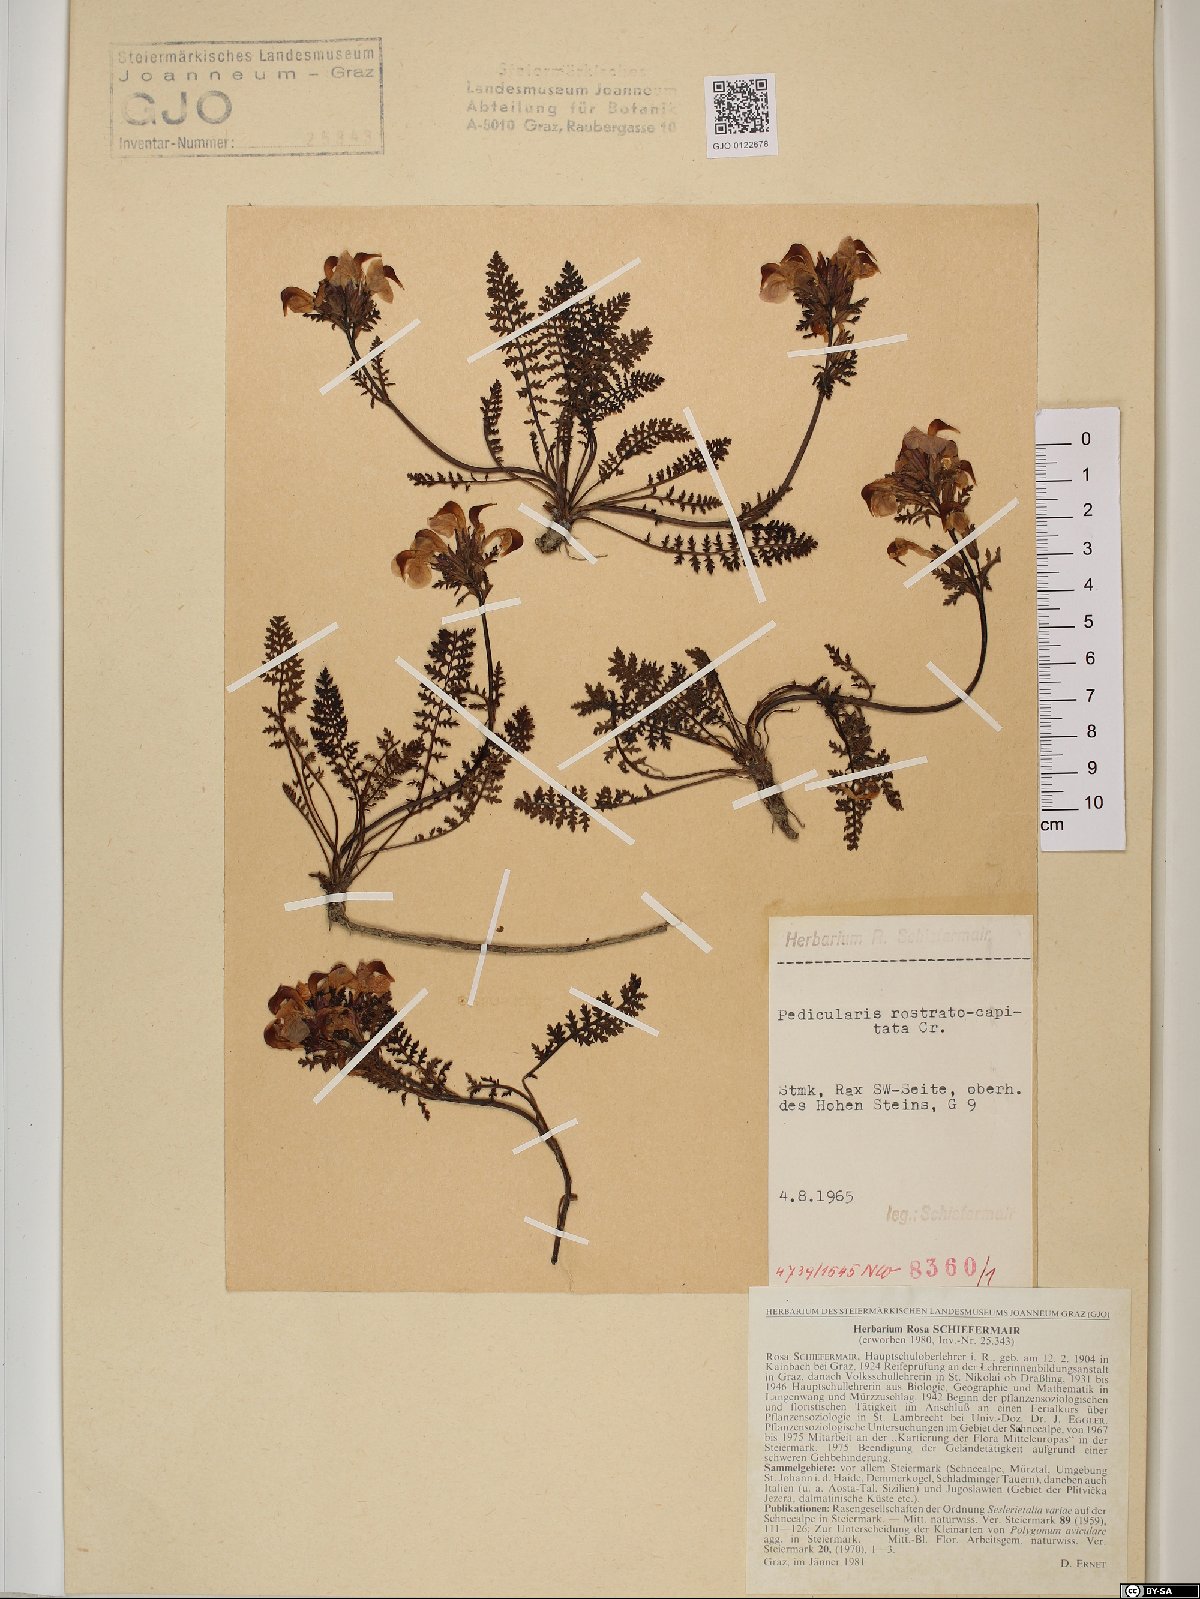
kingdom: Plantae
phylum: Tracheophyta
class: Magnoliopsida
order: Lamiales
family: Orobanchaceae
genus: Pedicularis
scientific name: Pedicularis rostratocapitata
